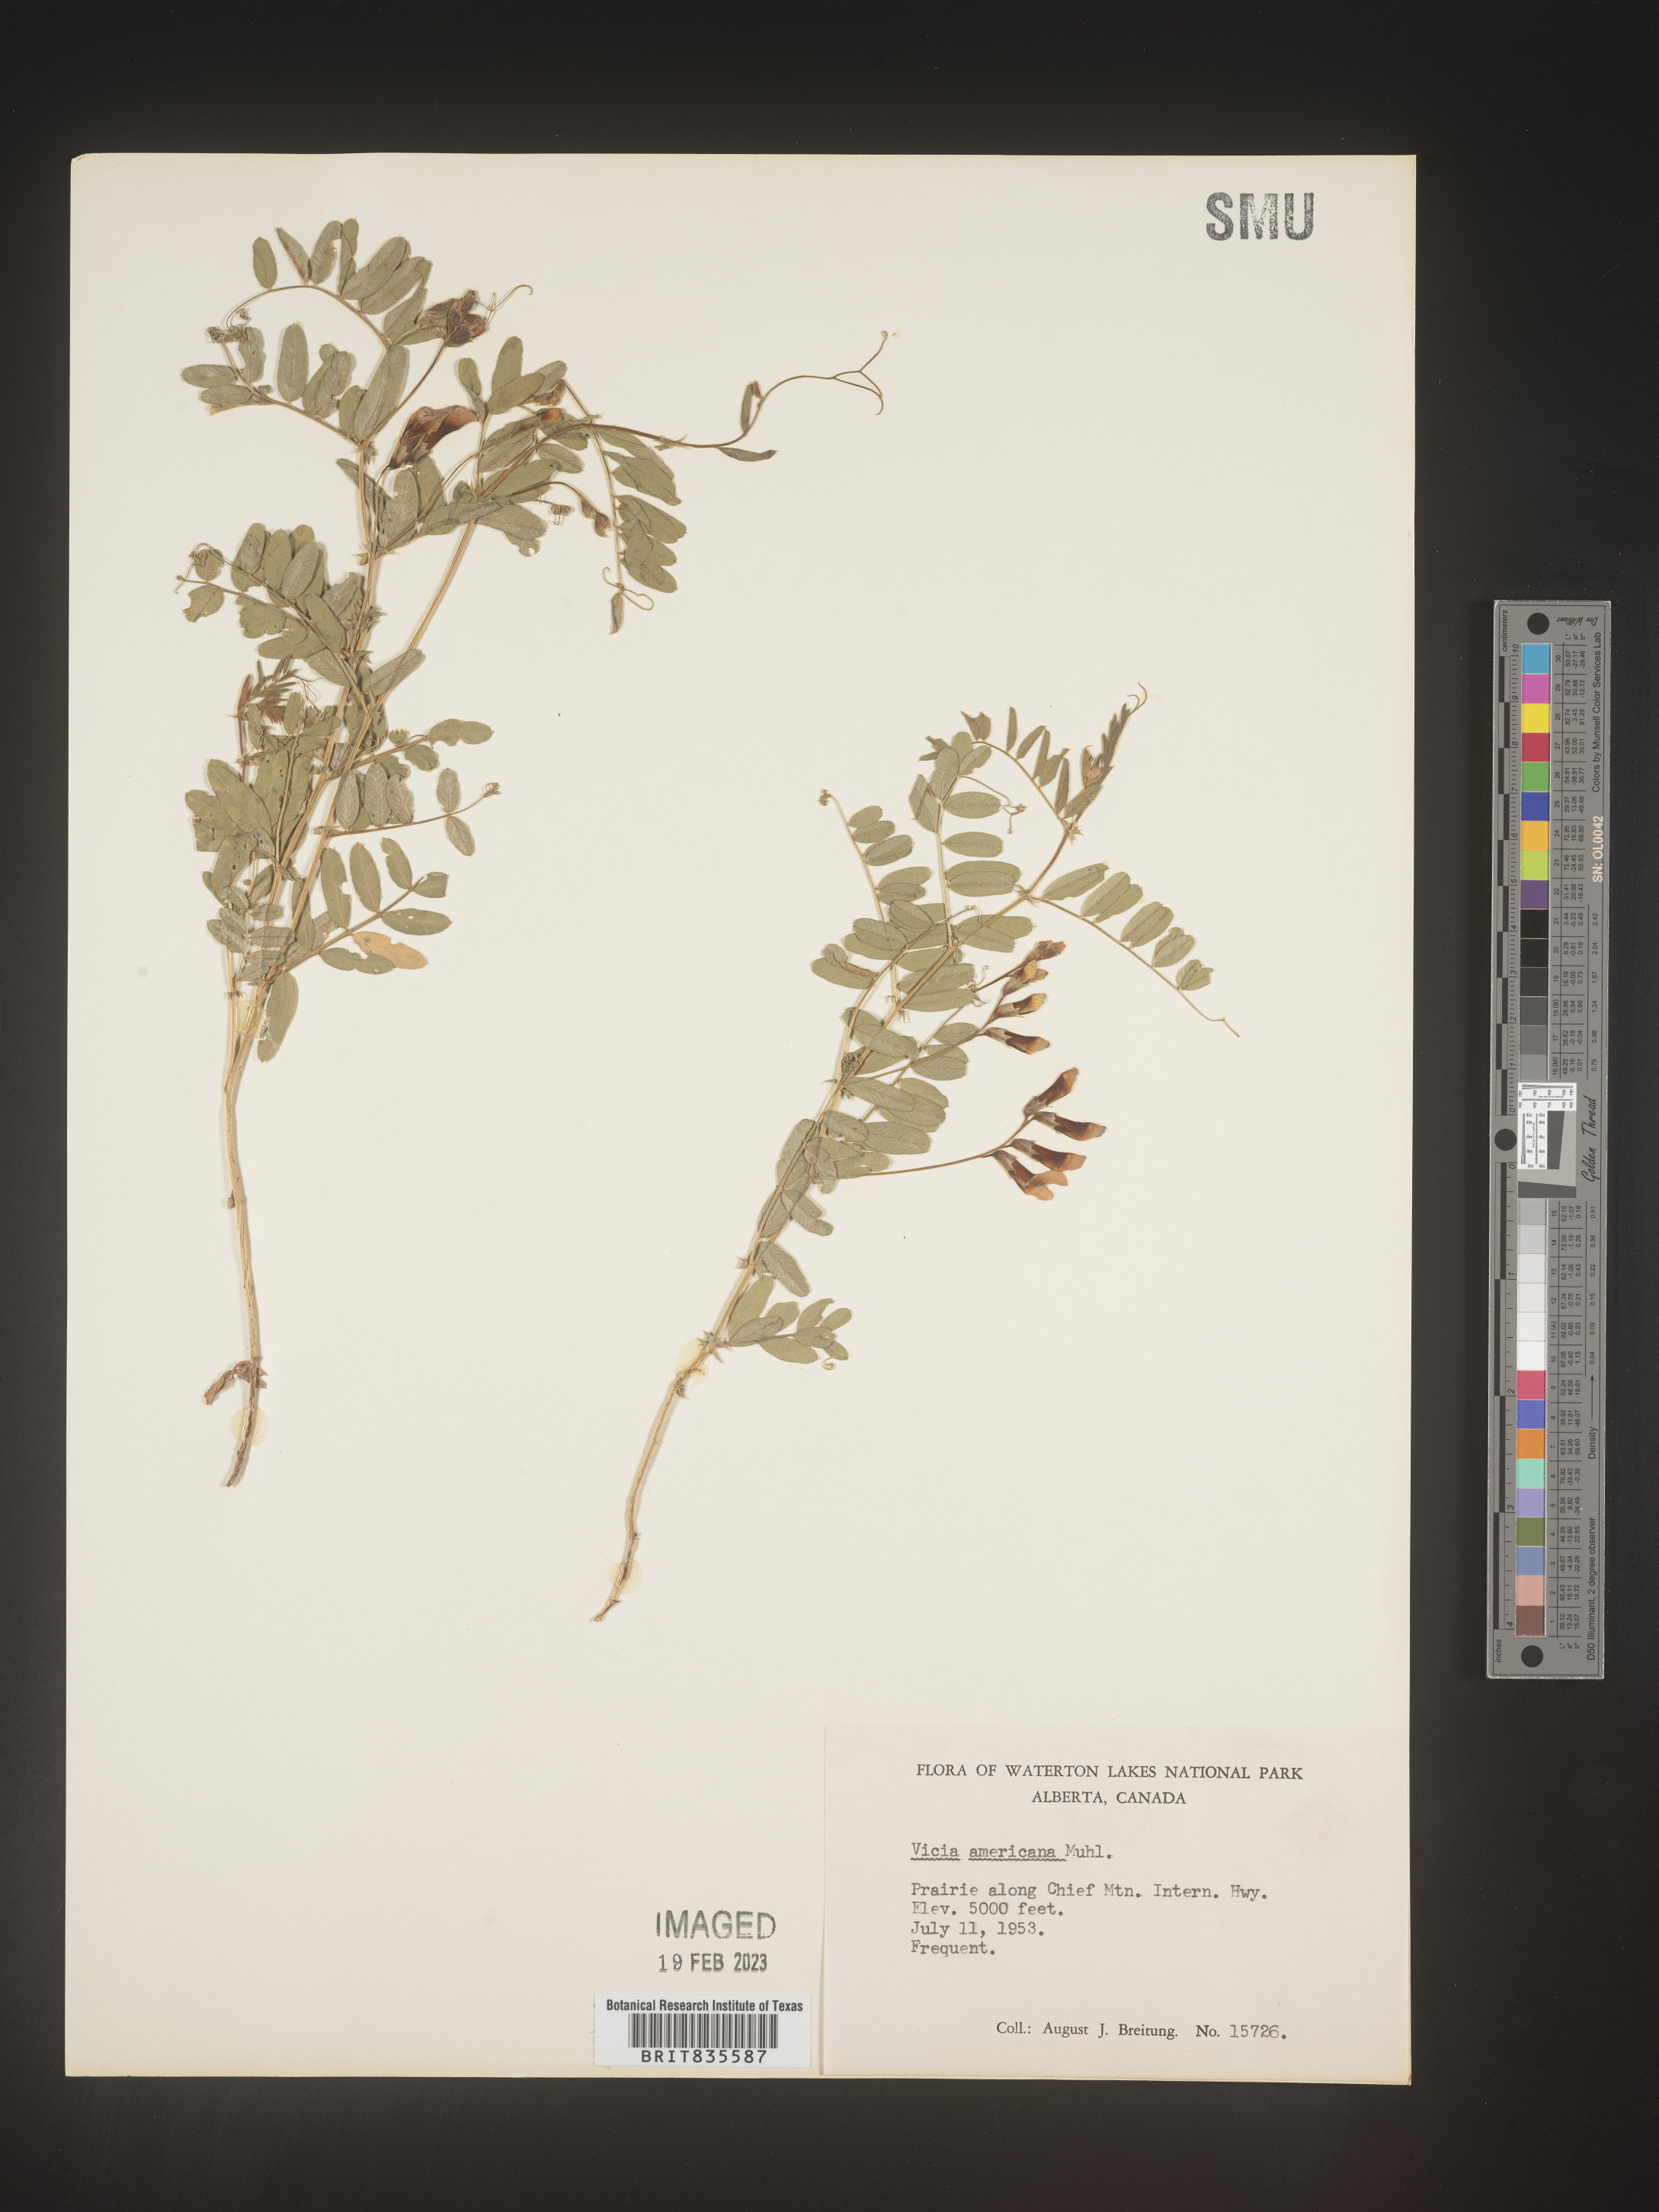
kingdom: Plantae
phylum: Tracheophyta
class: Magnoliopsida
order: Fabales
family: Fabaceae
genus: Vicia
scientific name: Vicia americana
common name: American vetch
